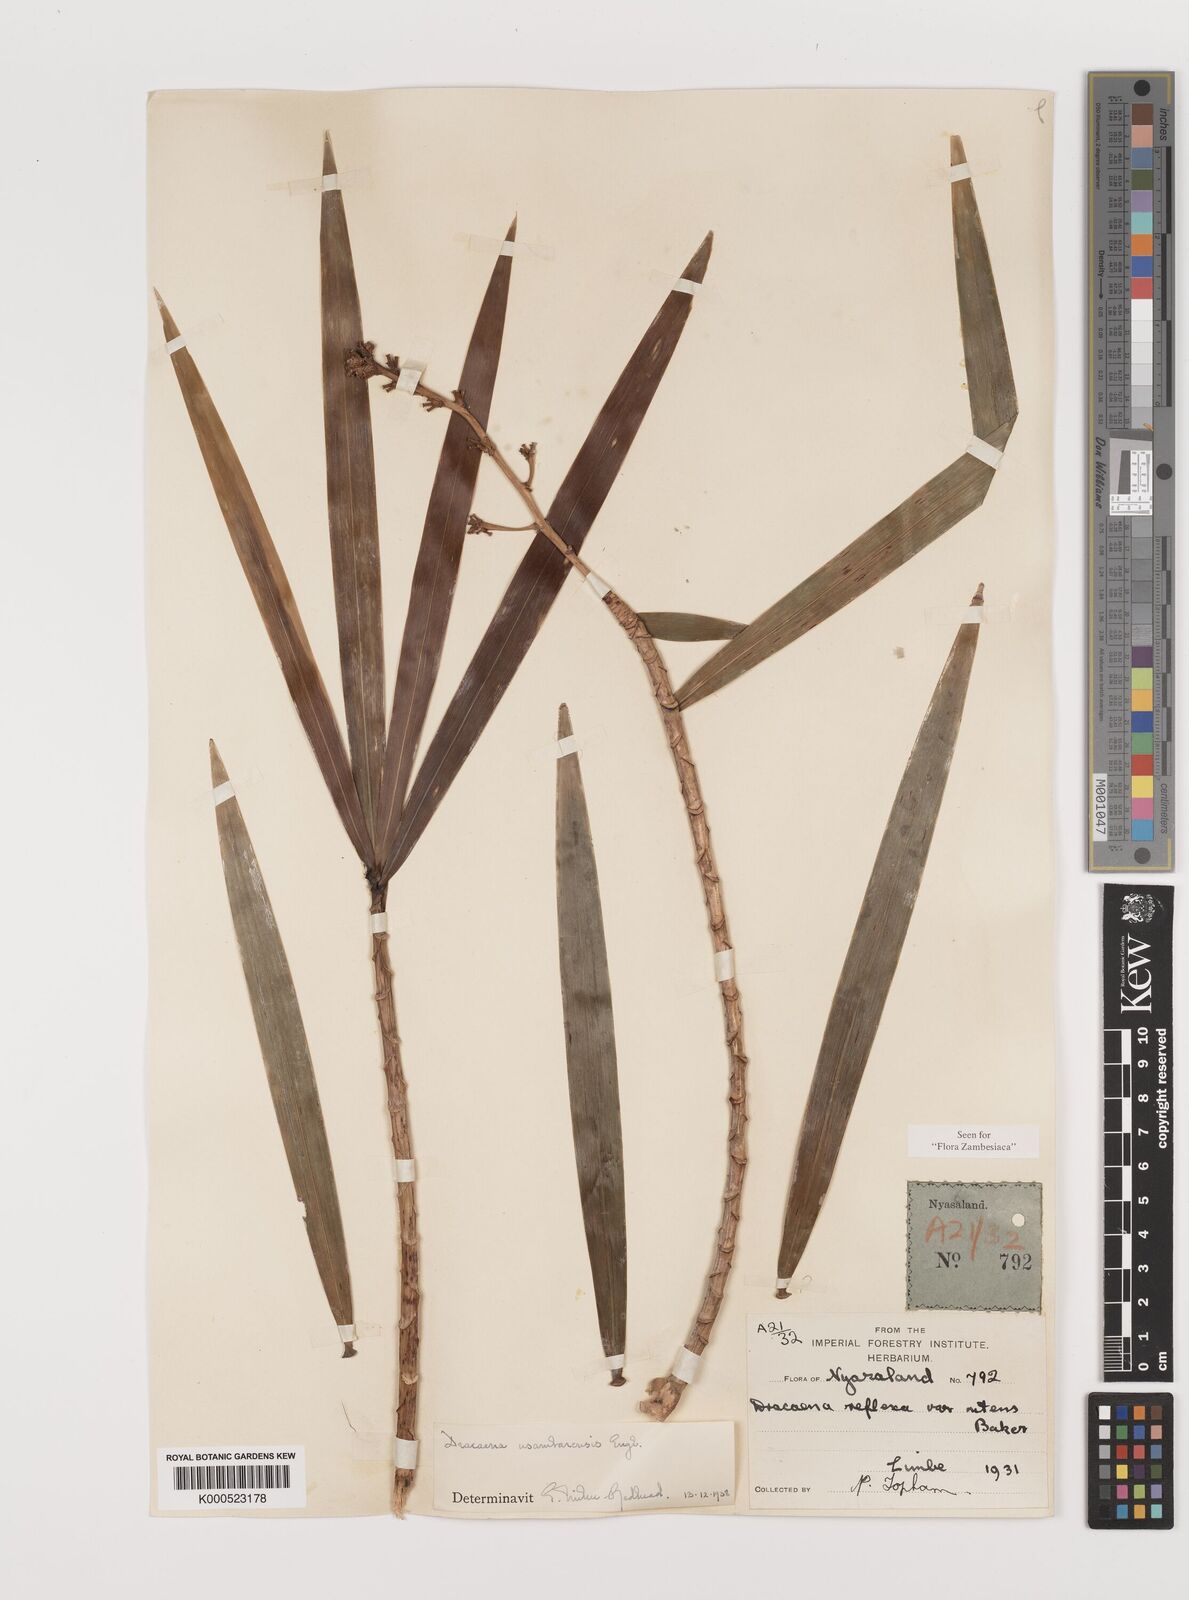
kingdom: Plantae
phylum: Tracheophyta
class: Liliopsida
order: Asparagales
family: Asparagaceae
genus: Dracaena
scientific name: Dracaena usambarensis
